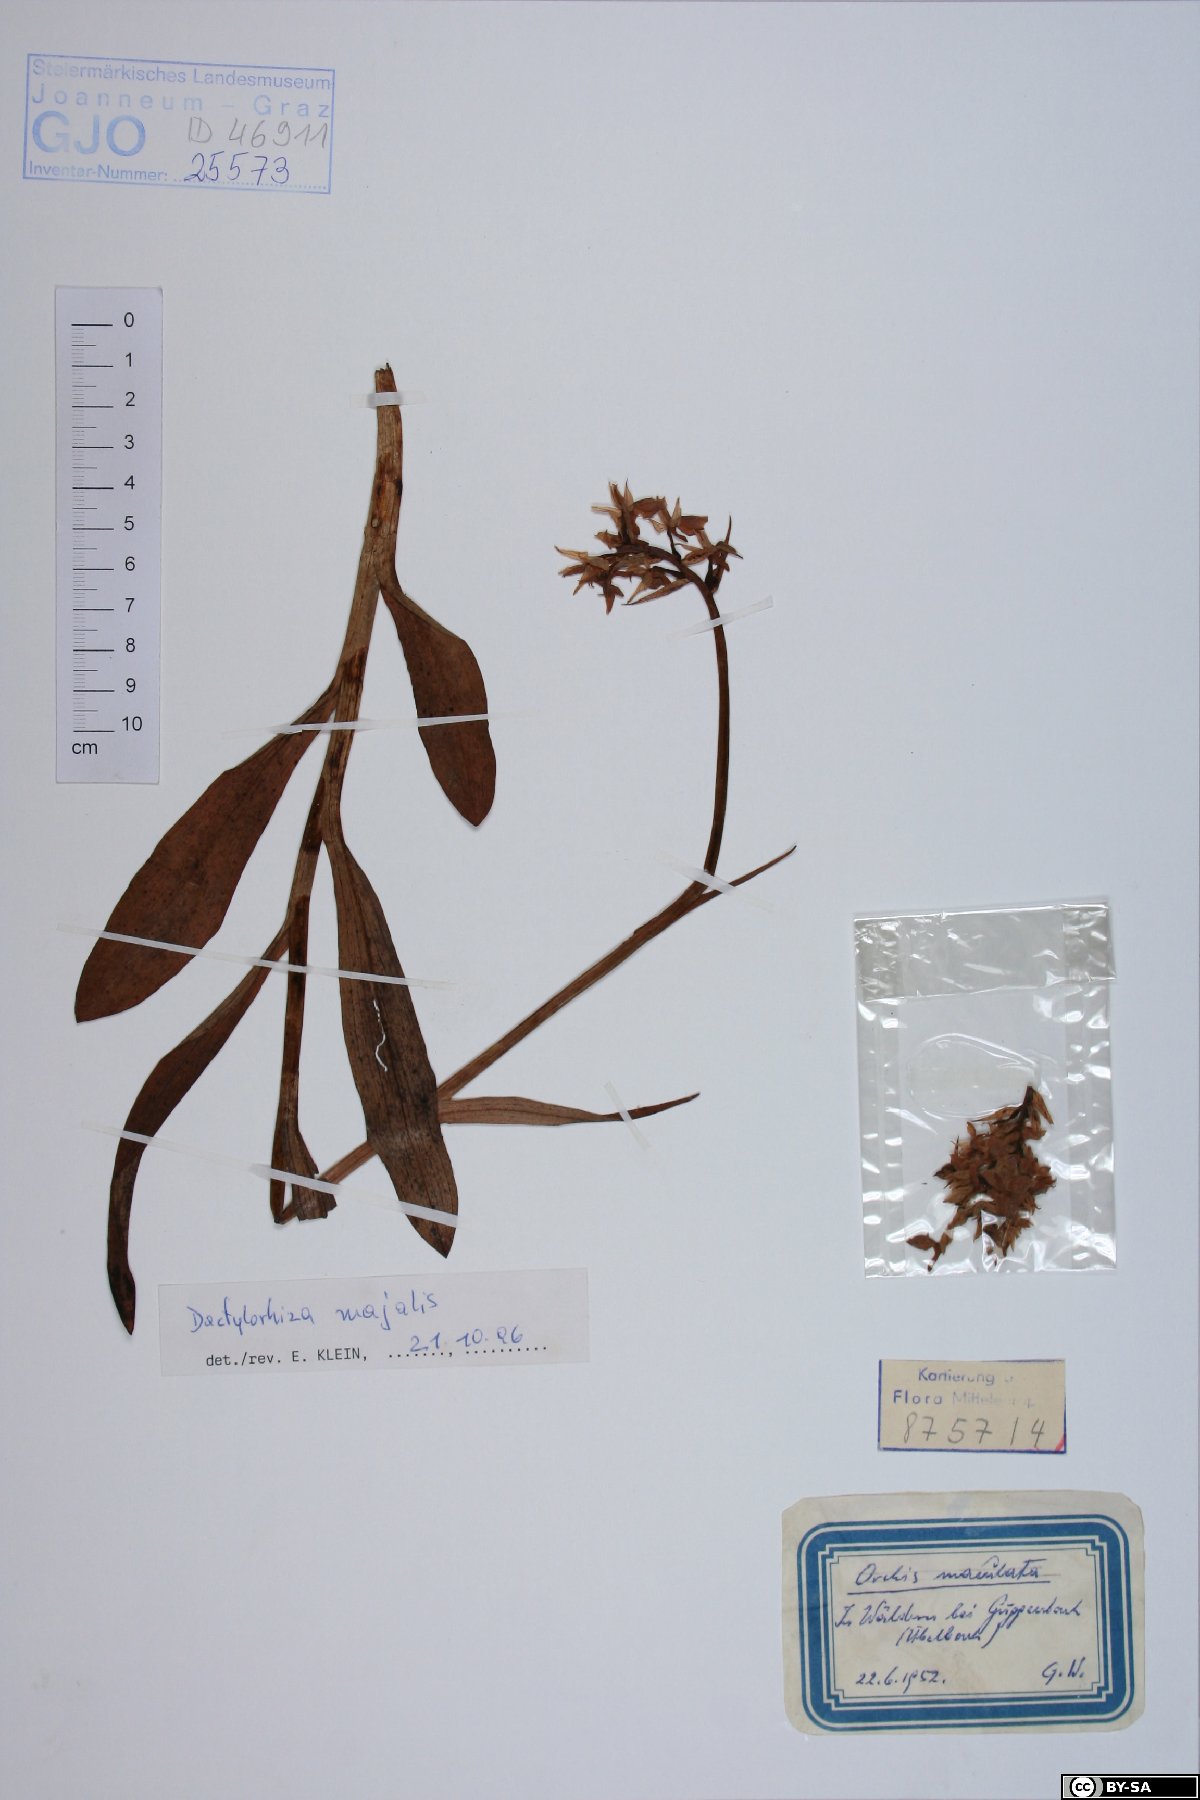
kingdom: Plantae
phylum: Tracheophyta
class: Liliopsida
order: Asparagales
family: Orchidaceae
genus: Dactylorhiza
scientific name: Dactylorhiza majalis
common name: Marsh orchid
